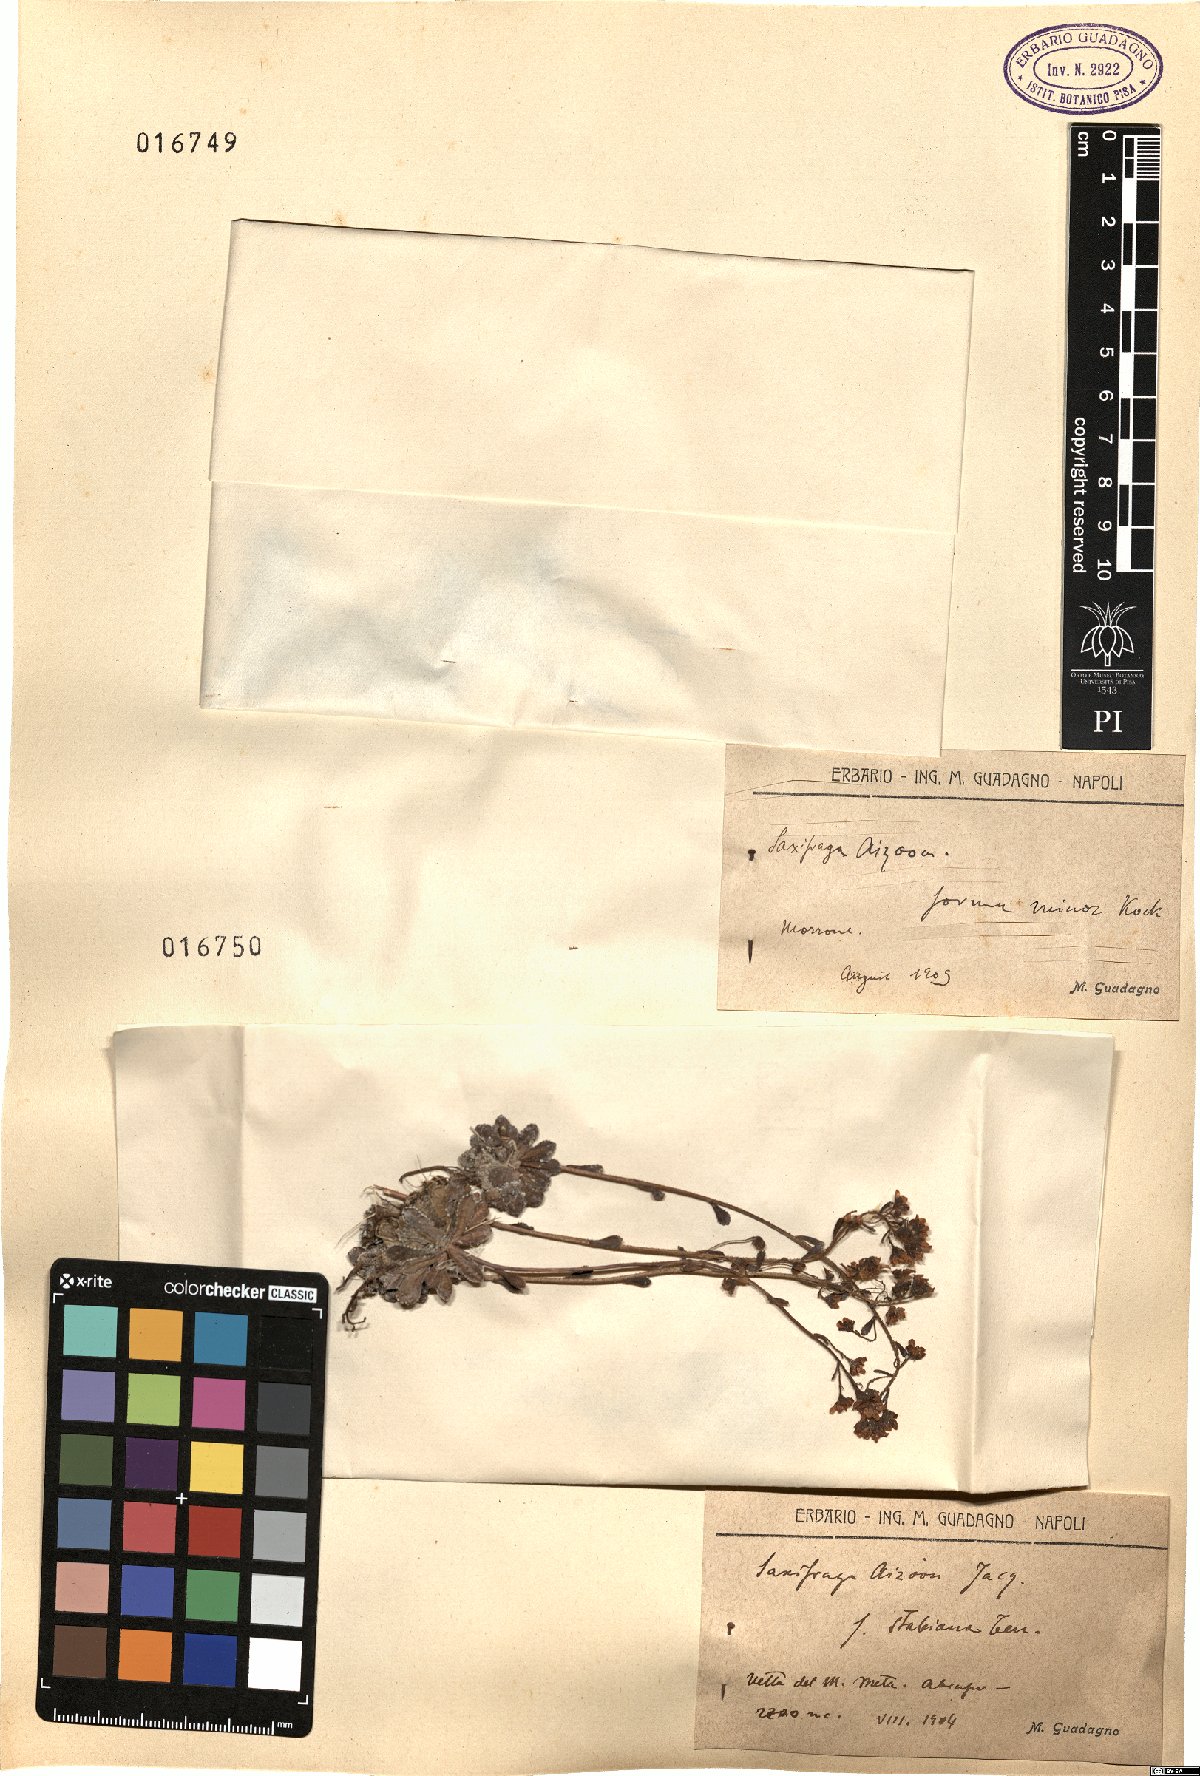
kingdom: Plantae
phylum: Tracheophyta
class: Magnoliopsida
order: Saxifragales
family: Saxifragaceae
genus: Saxifraga
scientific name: Saxifraga paniculata
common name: Livelong saxifrage
